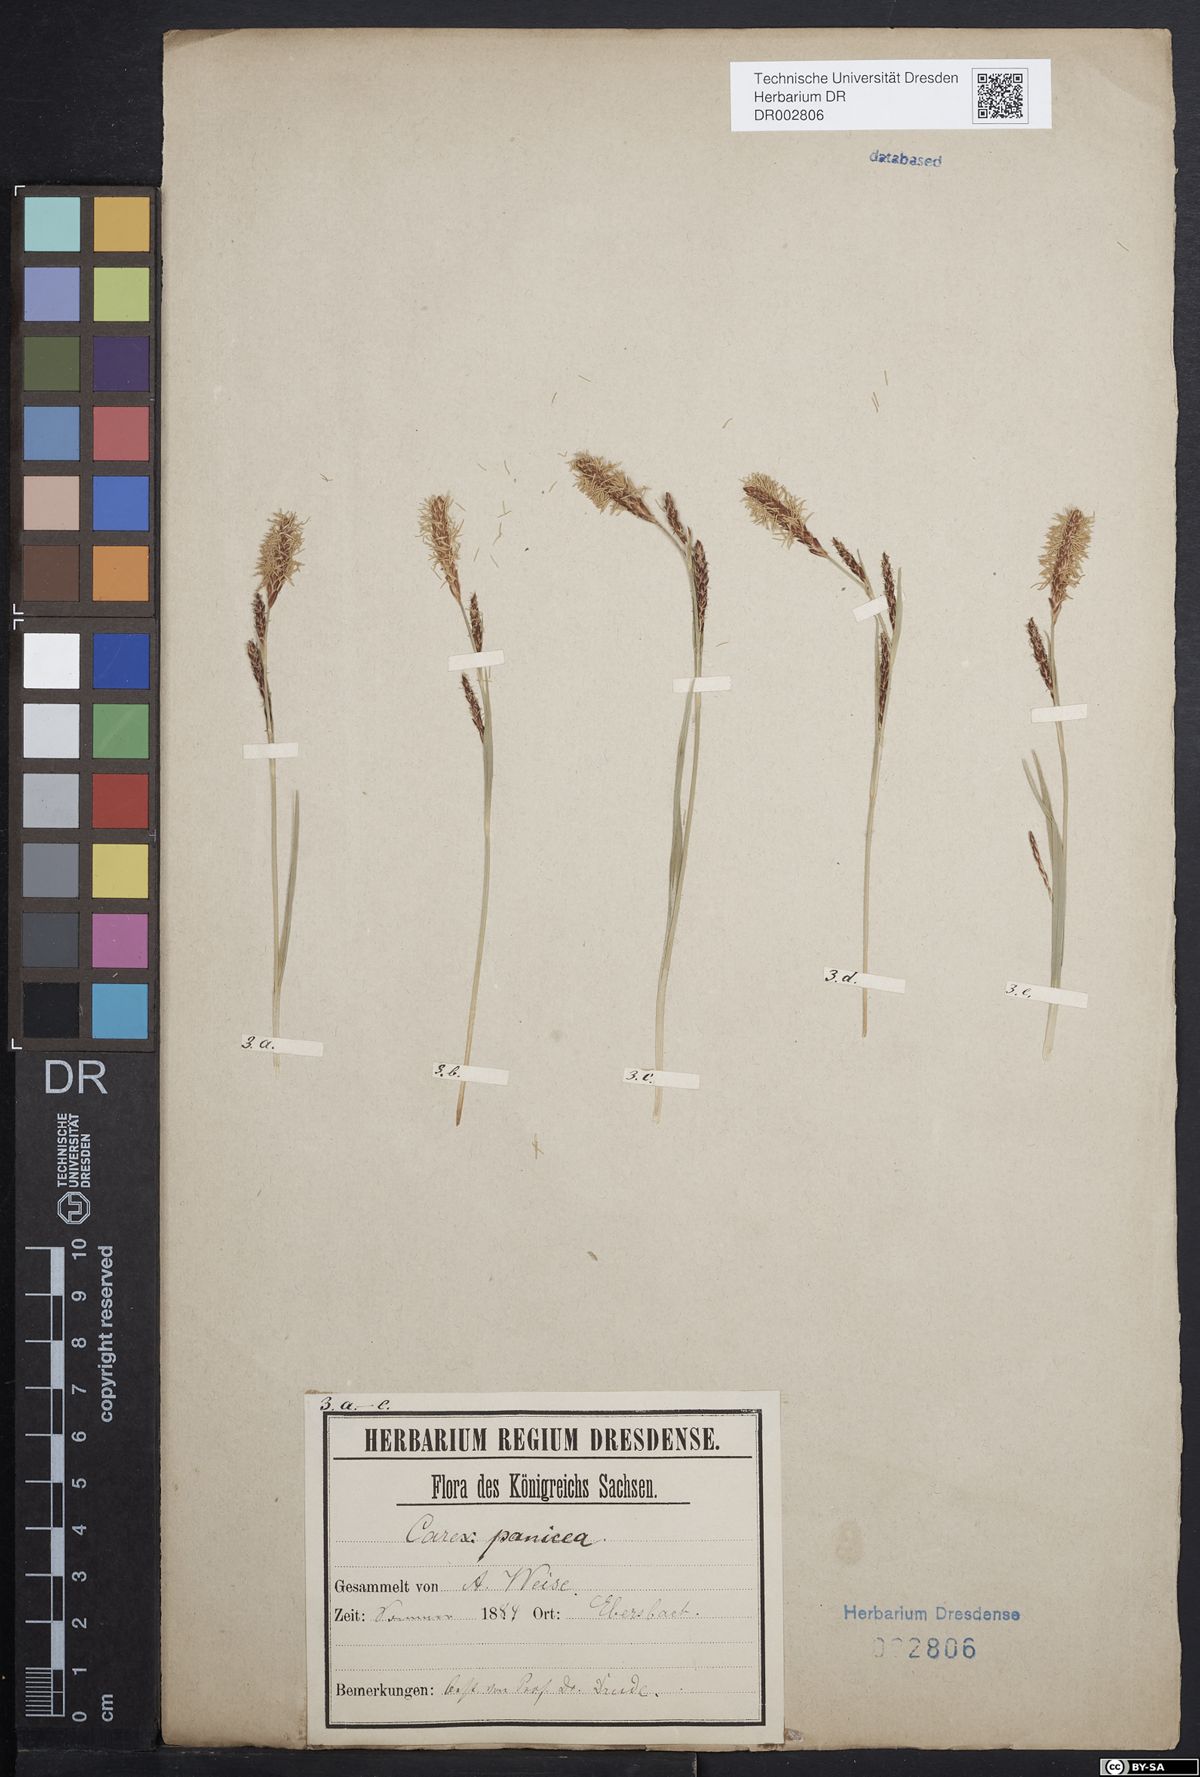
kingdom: Plantae
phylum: Tracheophyta
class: Liliopsida
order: Poales
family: Cyperaceae
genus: Carex
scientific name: Carex panicea
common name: Carnation sedge
